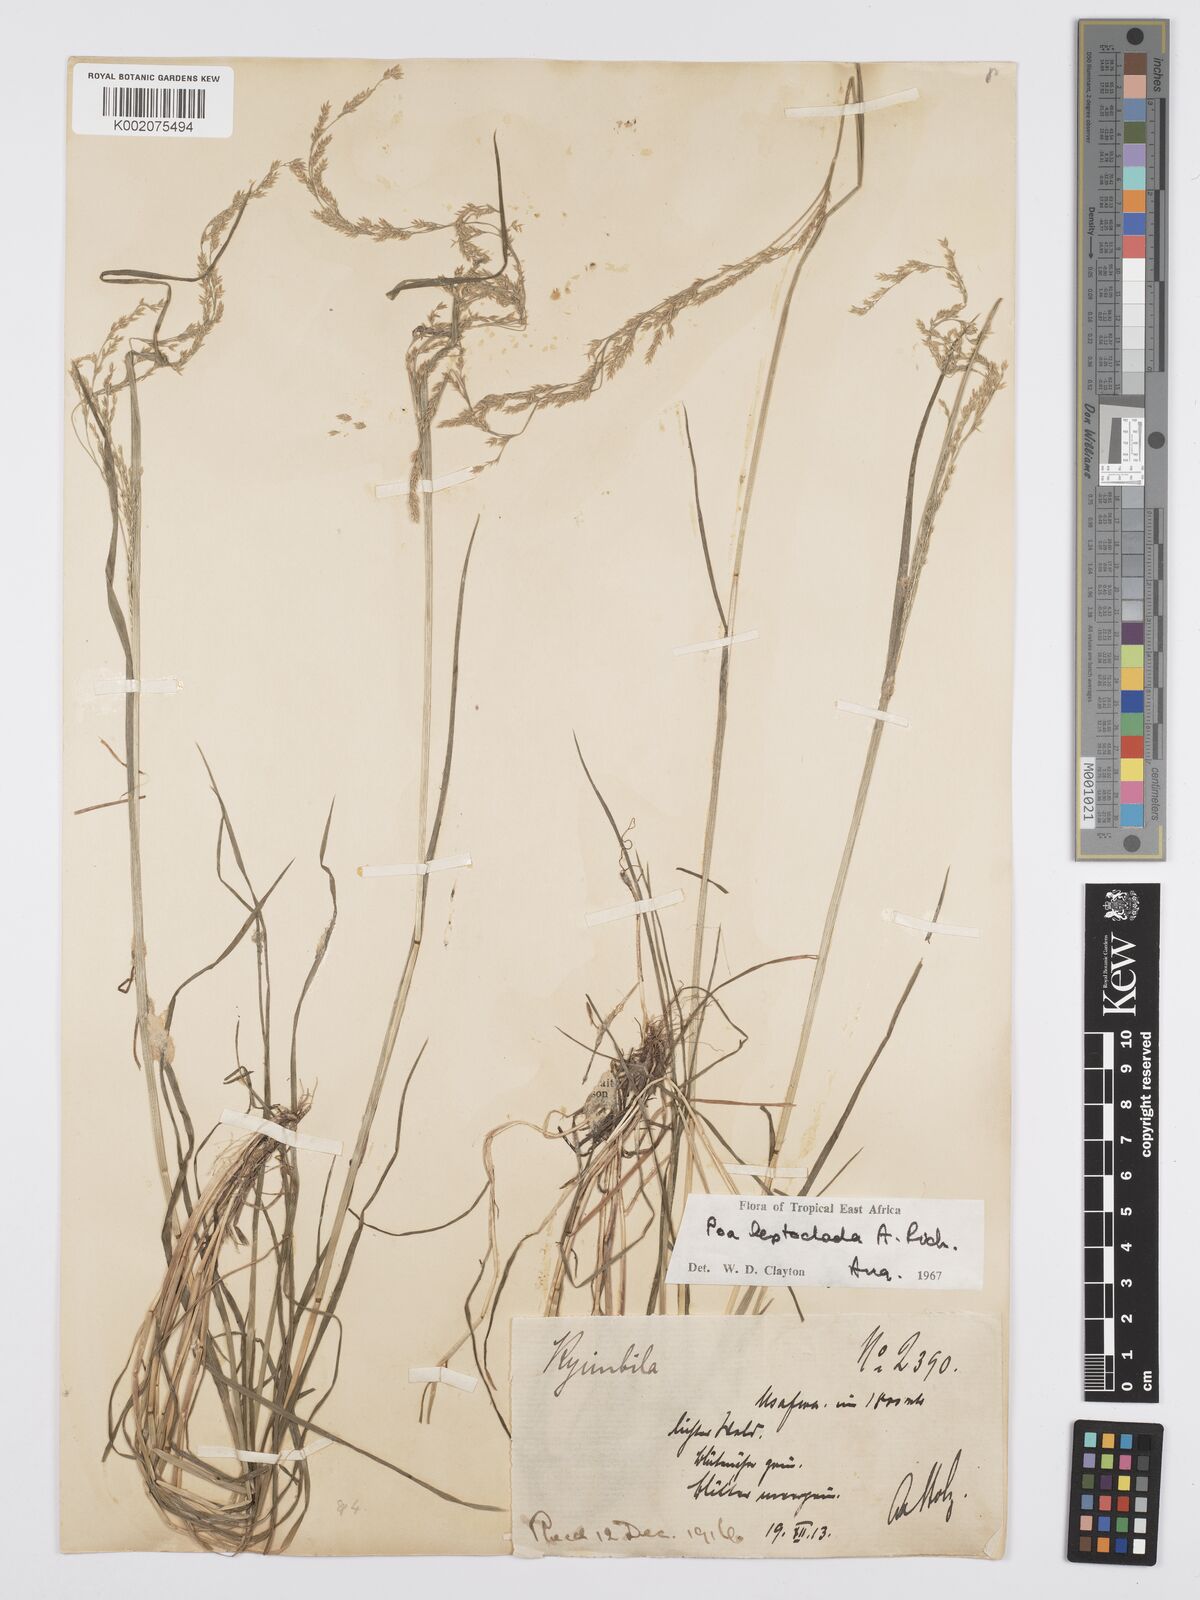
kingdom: Plantae
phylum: Tracheophyta
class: Liliopsida
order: Poales
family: Poaceae
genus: Poa
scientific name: Poa leptoclada
